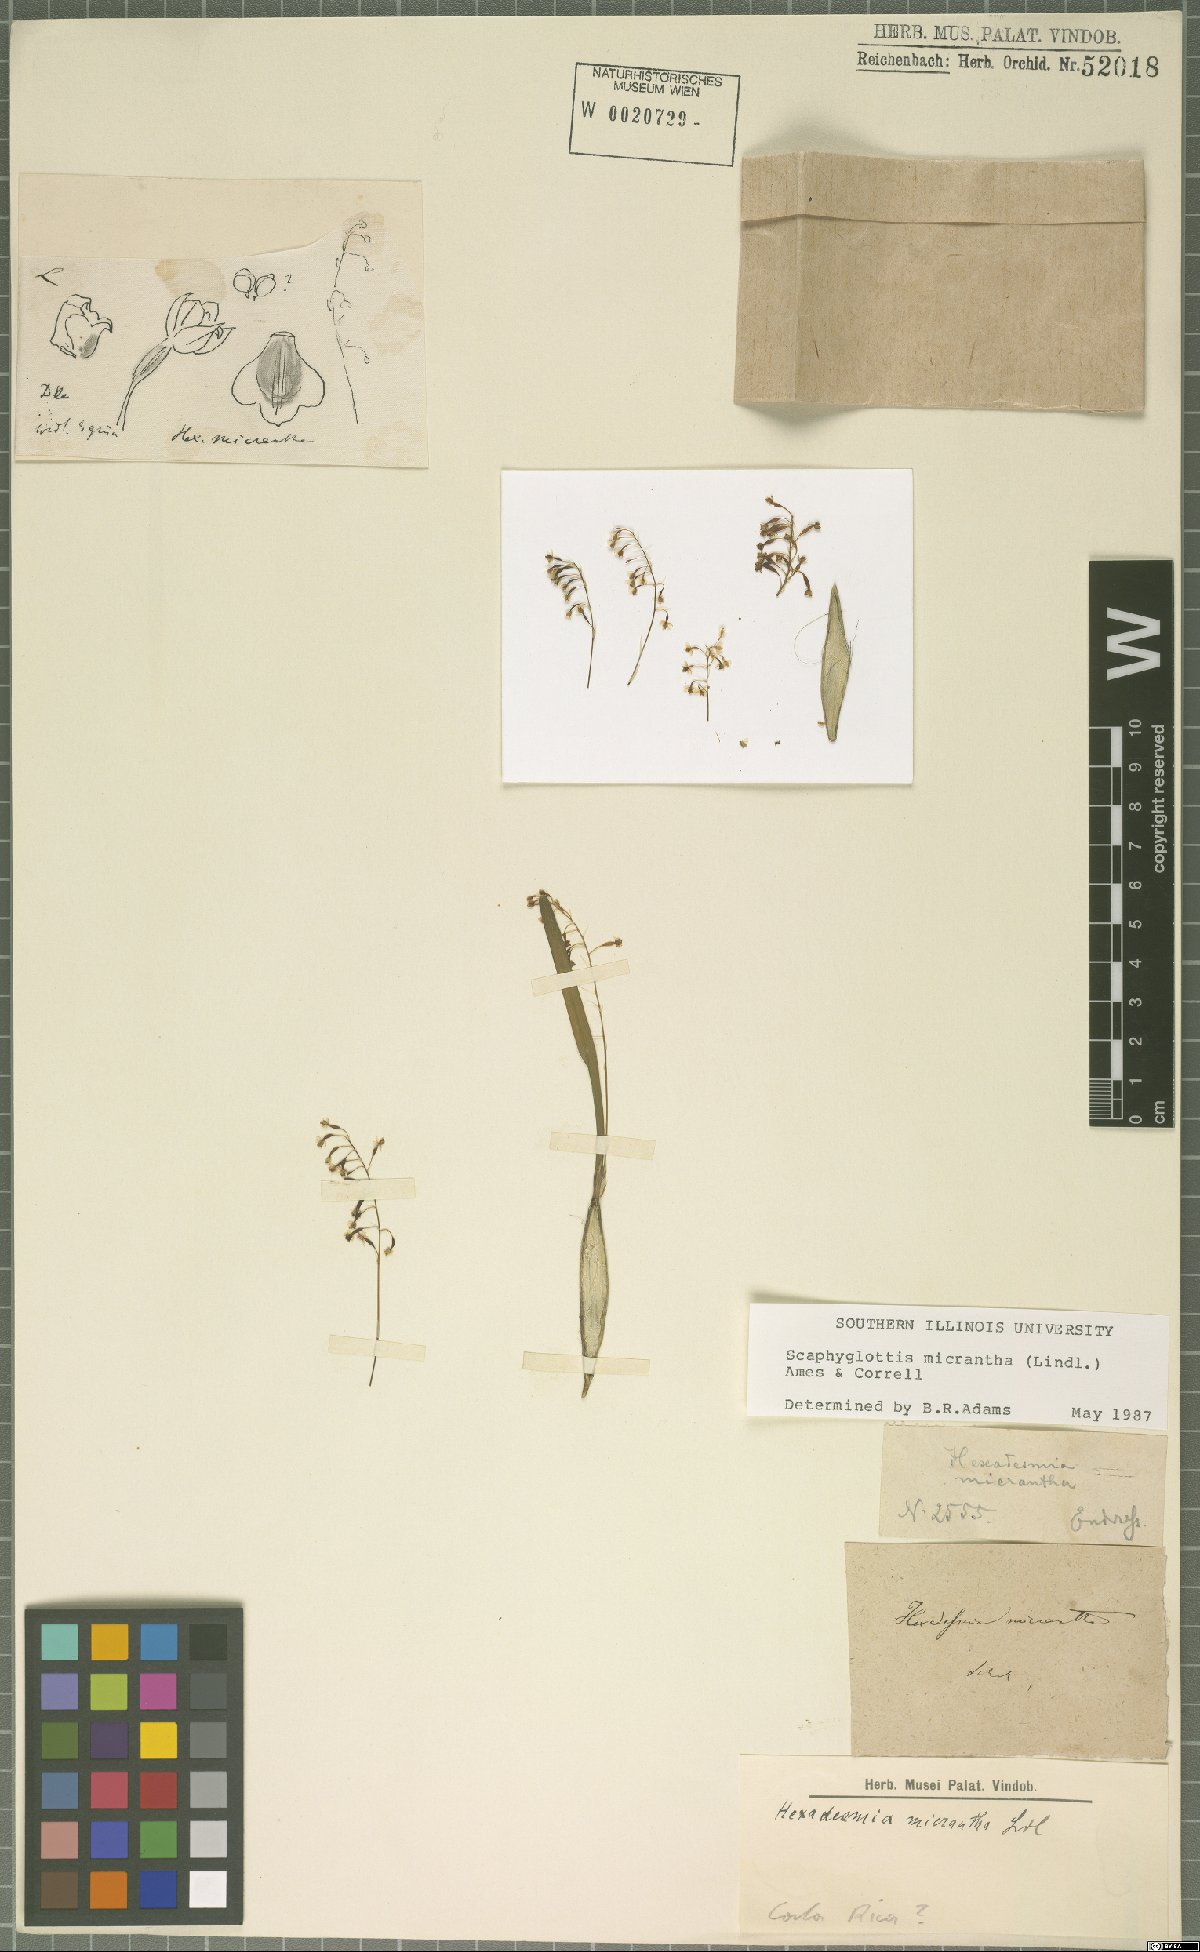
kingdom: Plantae
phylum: Tracheophyta
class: Liliopsida
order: Asparagales
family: Orchidaceae
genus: Scaphyglottis
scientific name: Scaphyglottis micrantha
